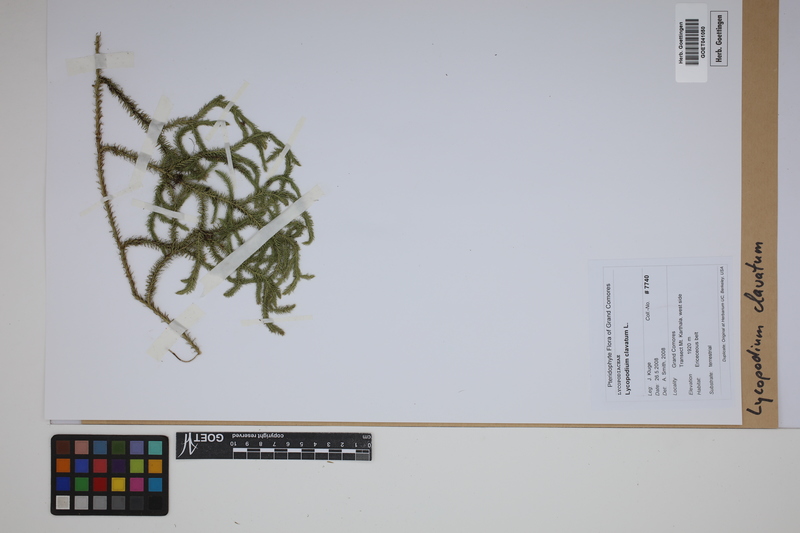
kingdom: Plantae
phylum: Tracheophyta
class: Lycopodiopsida
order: Lycopodiales
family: Lycopodiaceae
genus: Lycopodium
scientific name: Lycopodium clavatum
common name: Stag's-horn clubmoss
